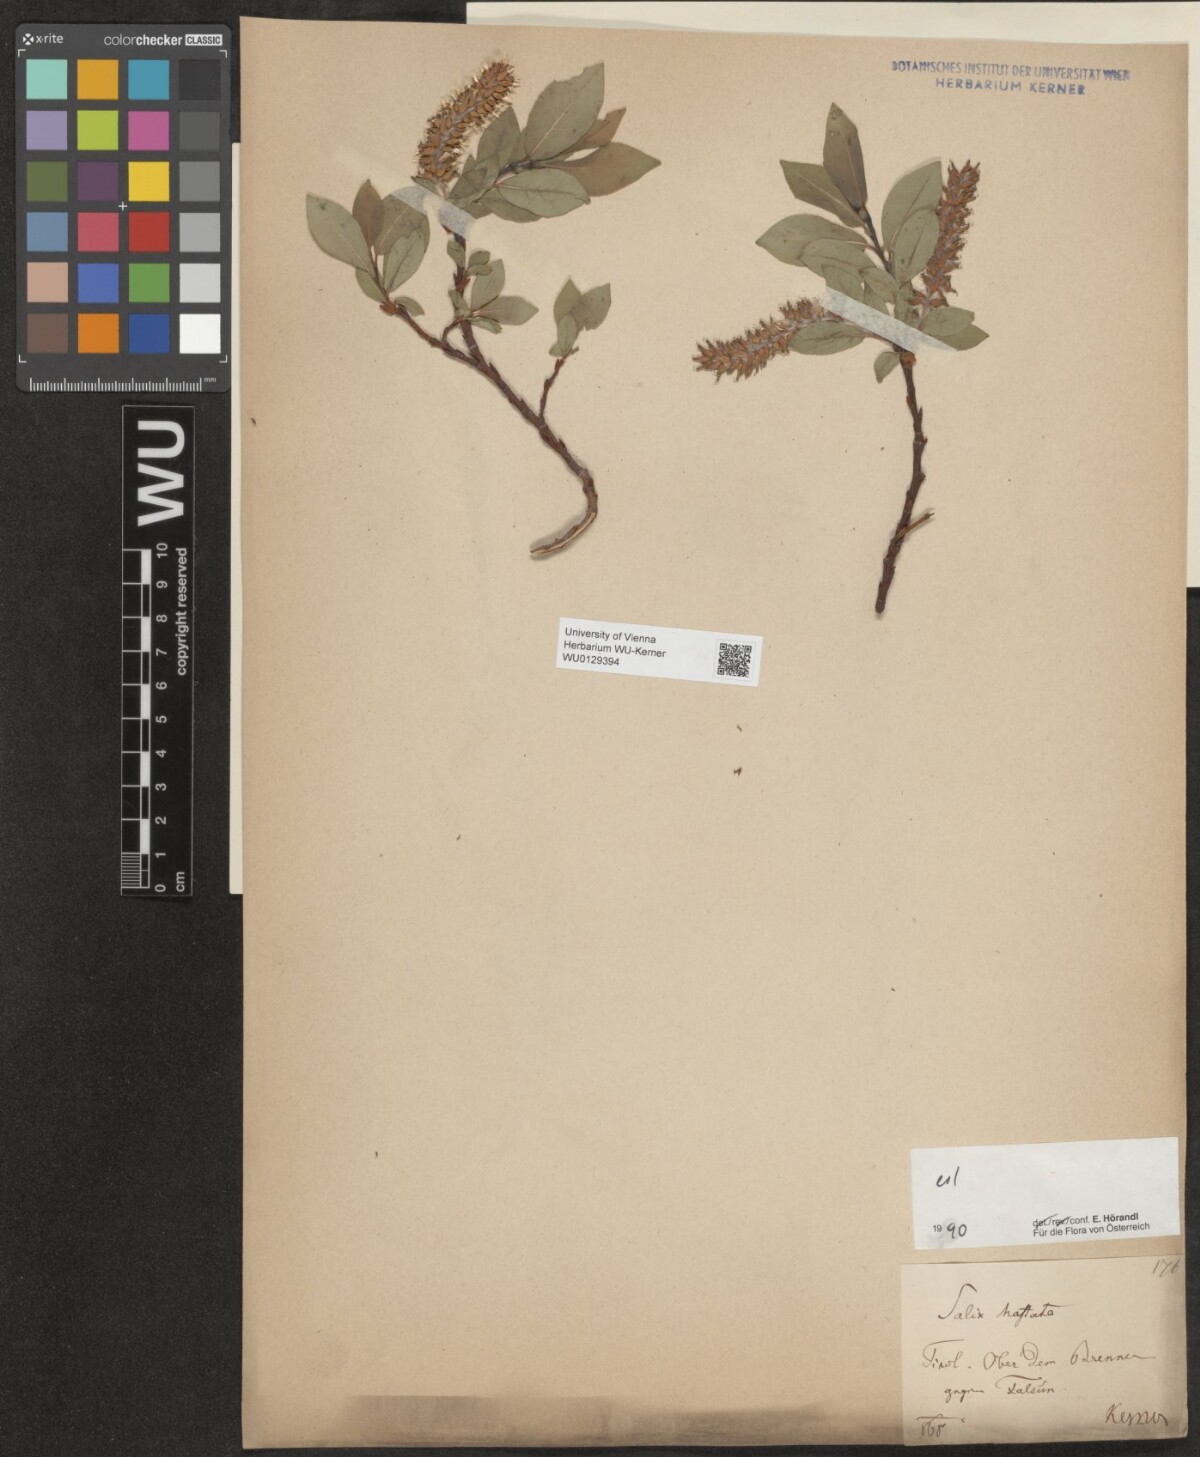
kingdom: Plantae
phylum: Tracheophyta
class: Magnoliopsida
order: Malpighiales
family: Salicaceae
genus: Salix
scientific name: Salix hastata
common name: Halberd willow
